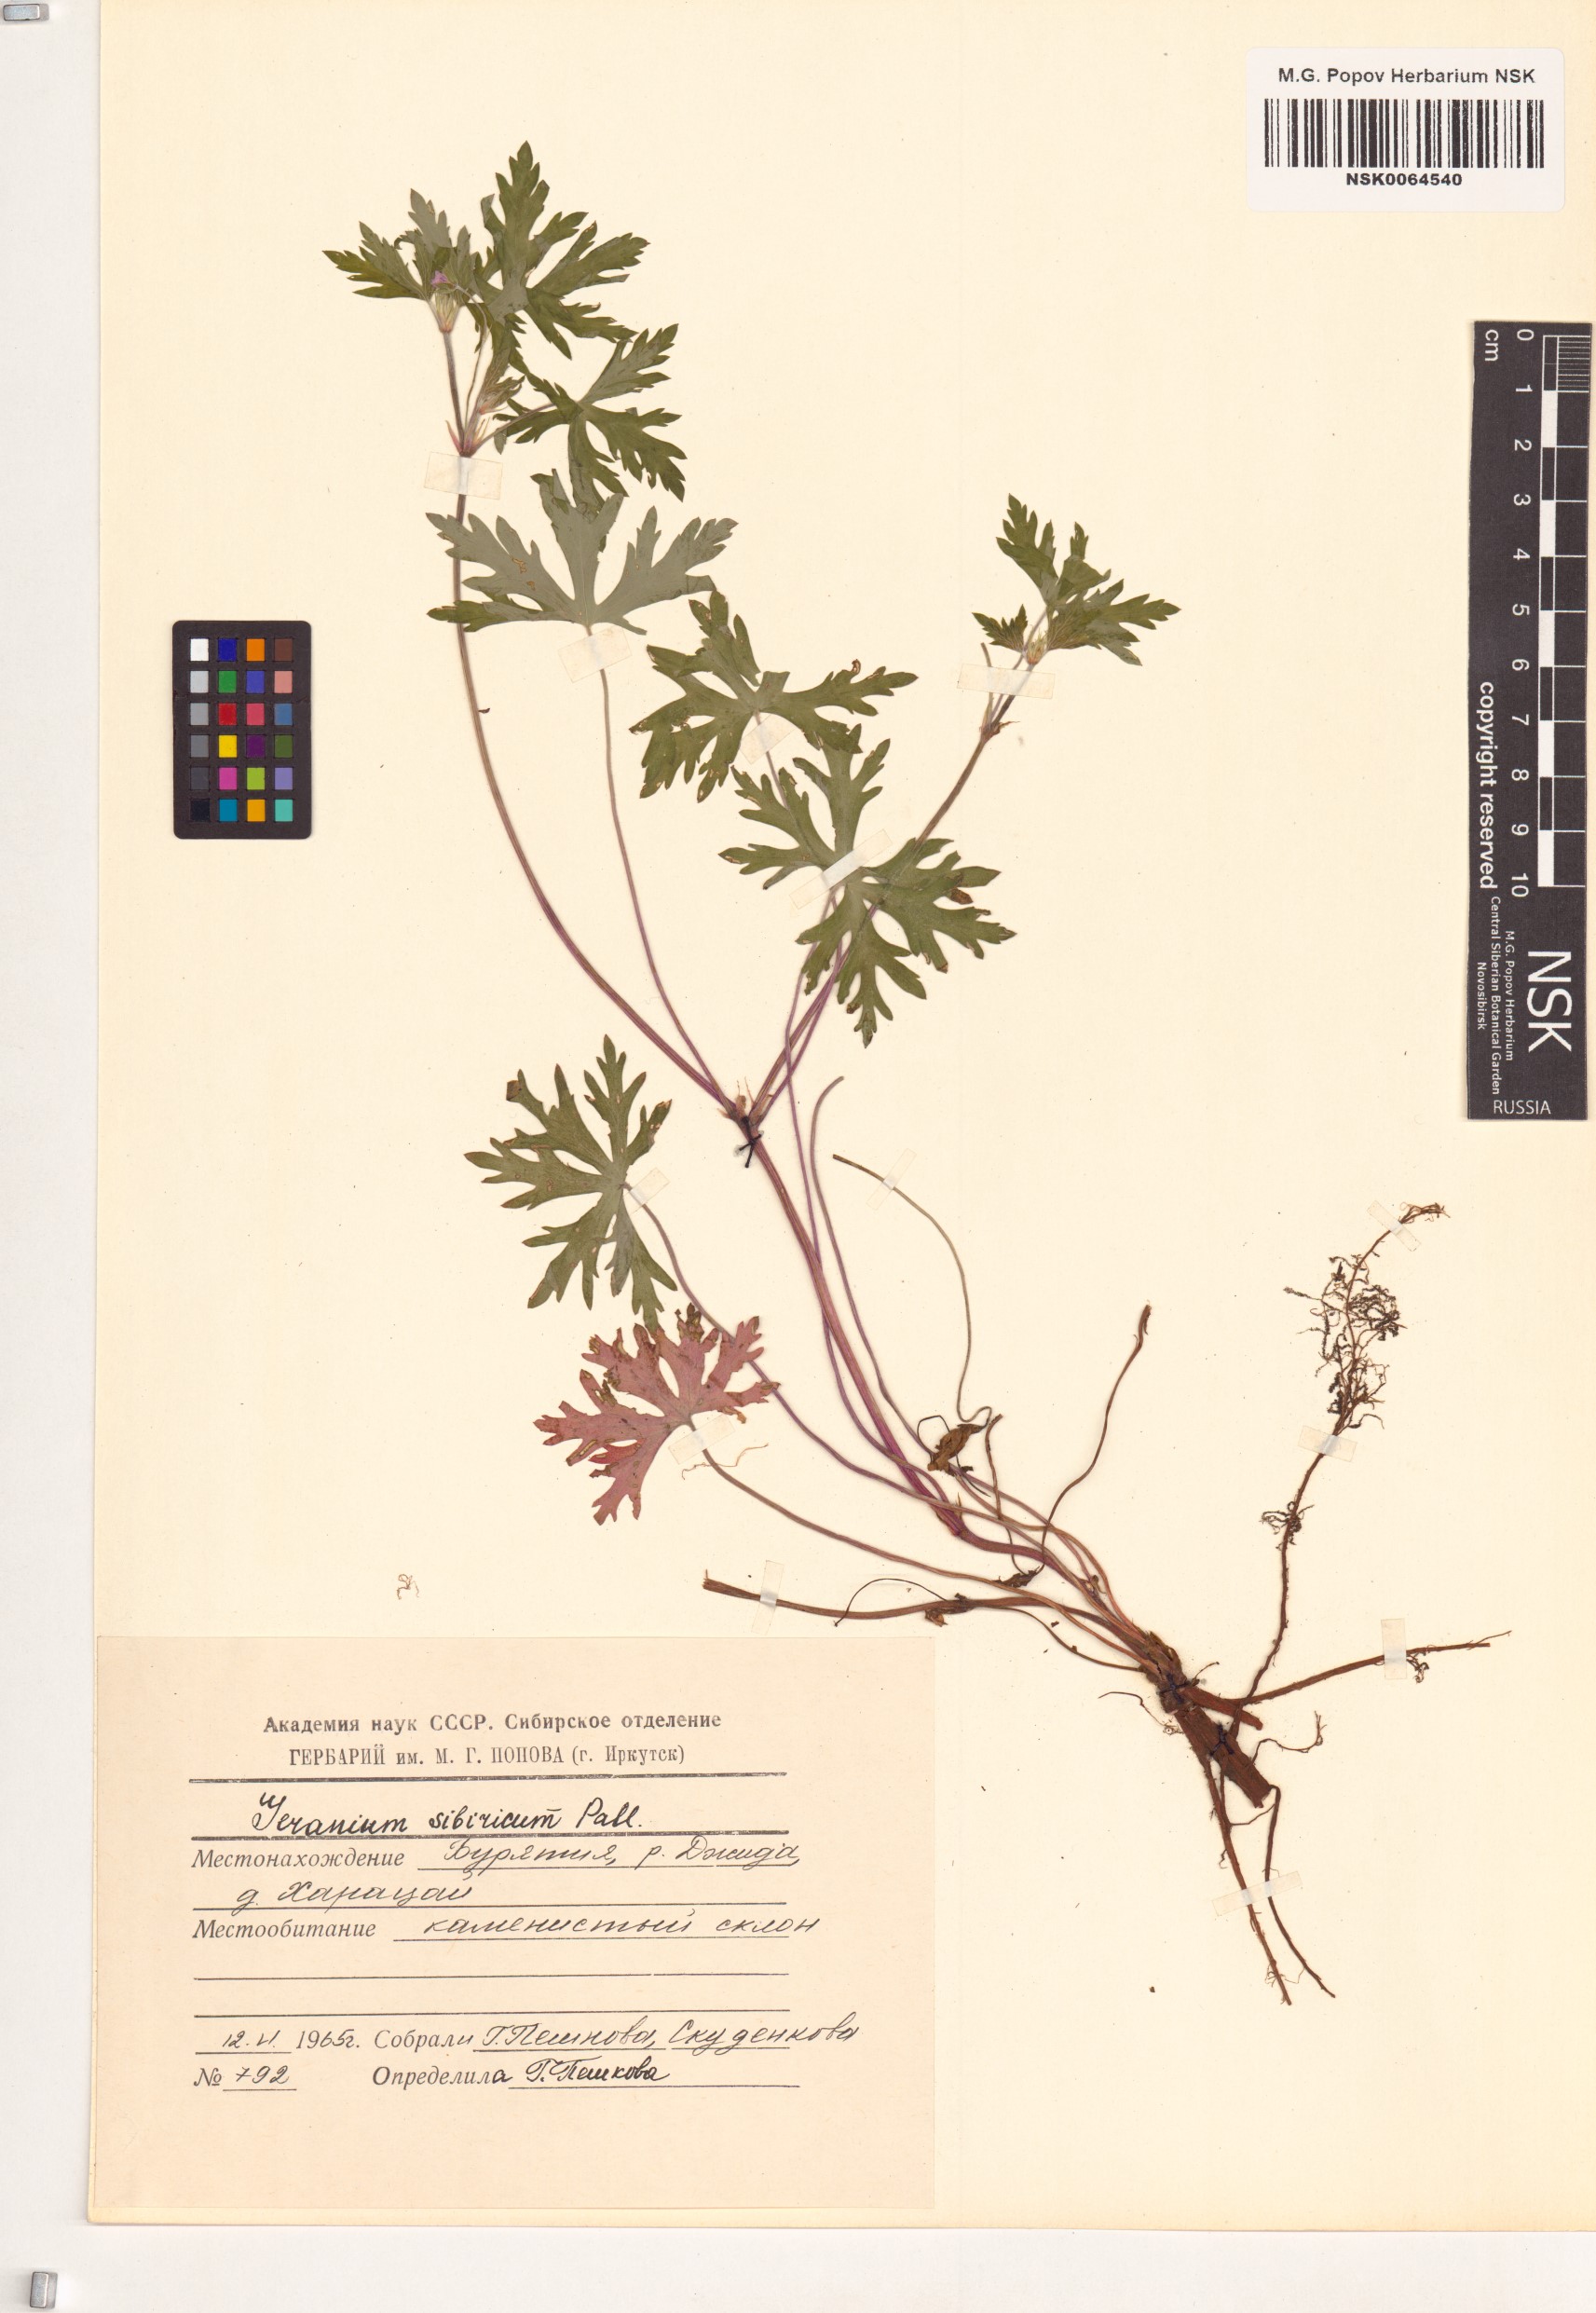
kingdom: Plantae
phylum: Tracheophyta
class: Magnoliopsida
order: Geraniales
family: Geraniaceae
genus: Geranium
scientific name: Geranium sibiricum
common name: Siberian crane's-bill
